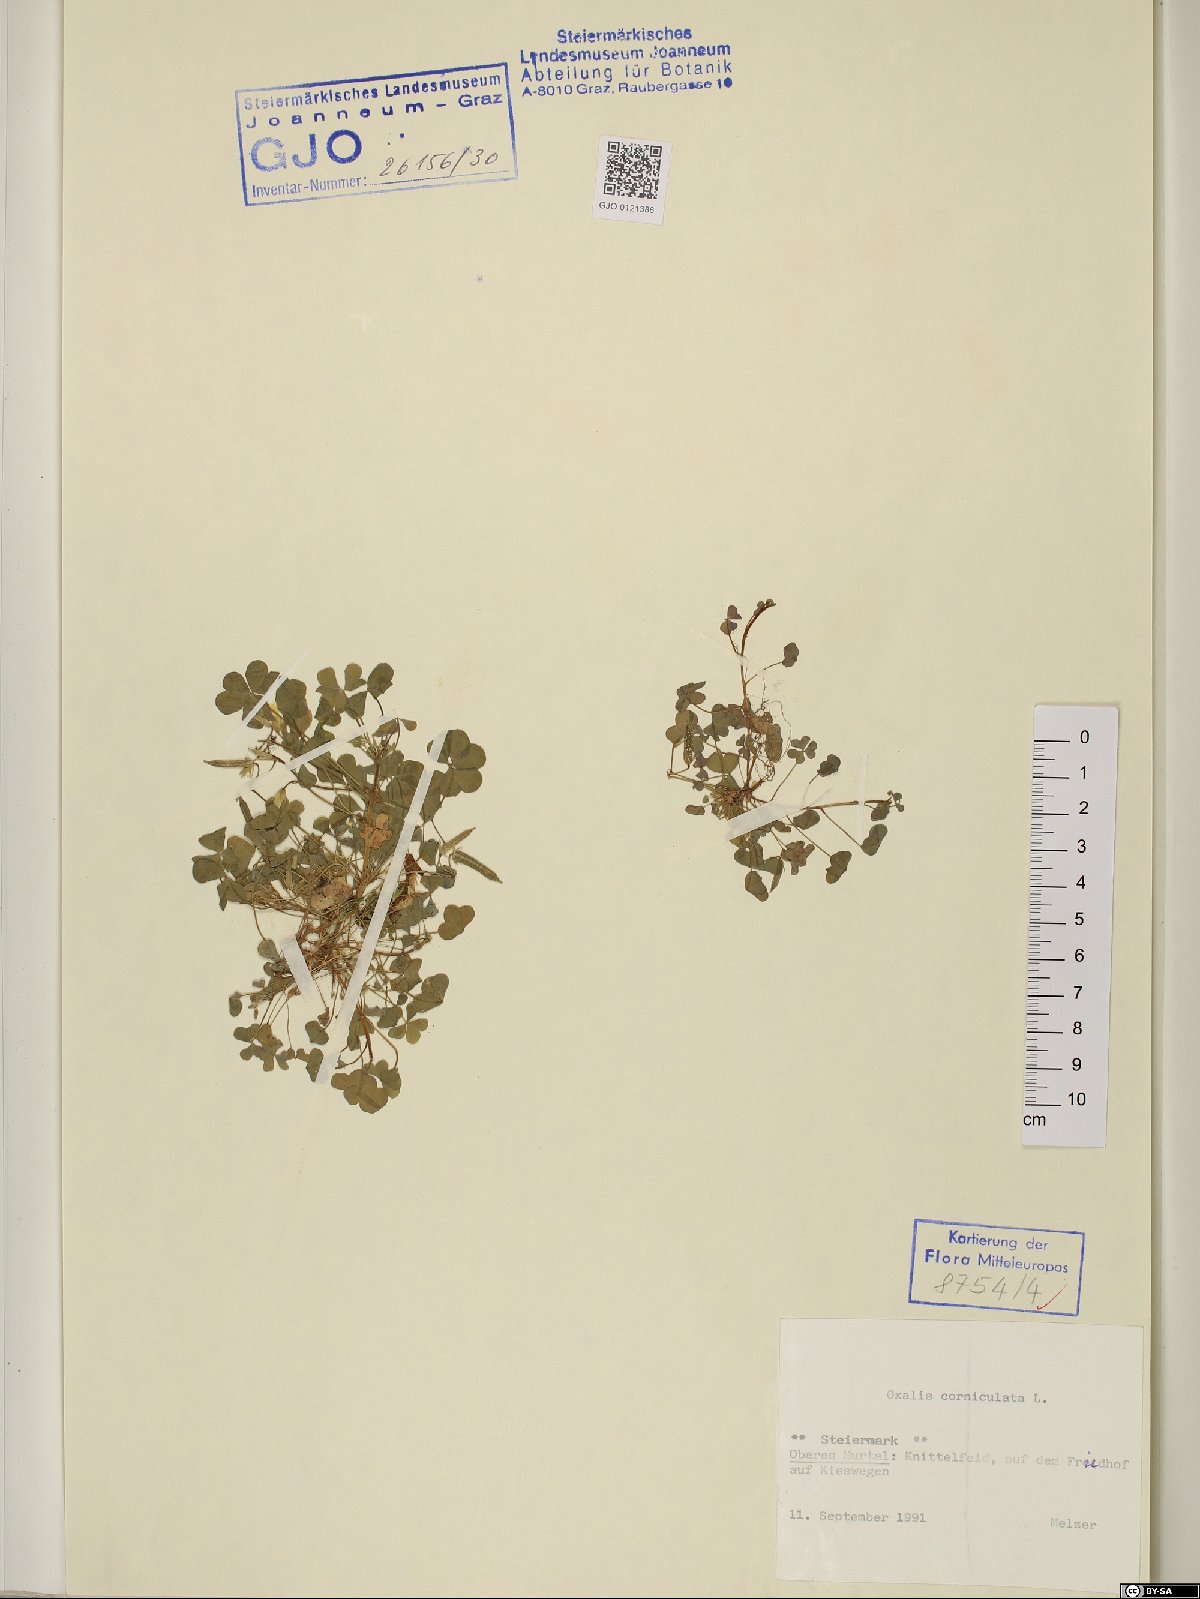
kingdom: Plantae
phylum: Tracheophyta
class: Magnoliopsida
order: Oxalidales
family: Oxalidaceae
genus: Oxalis
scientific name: Oxalis corniculata
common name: Procumbent yellow-sorrel
